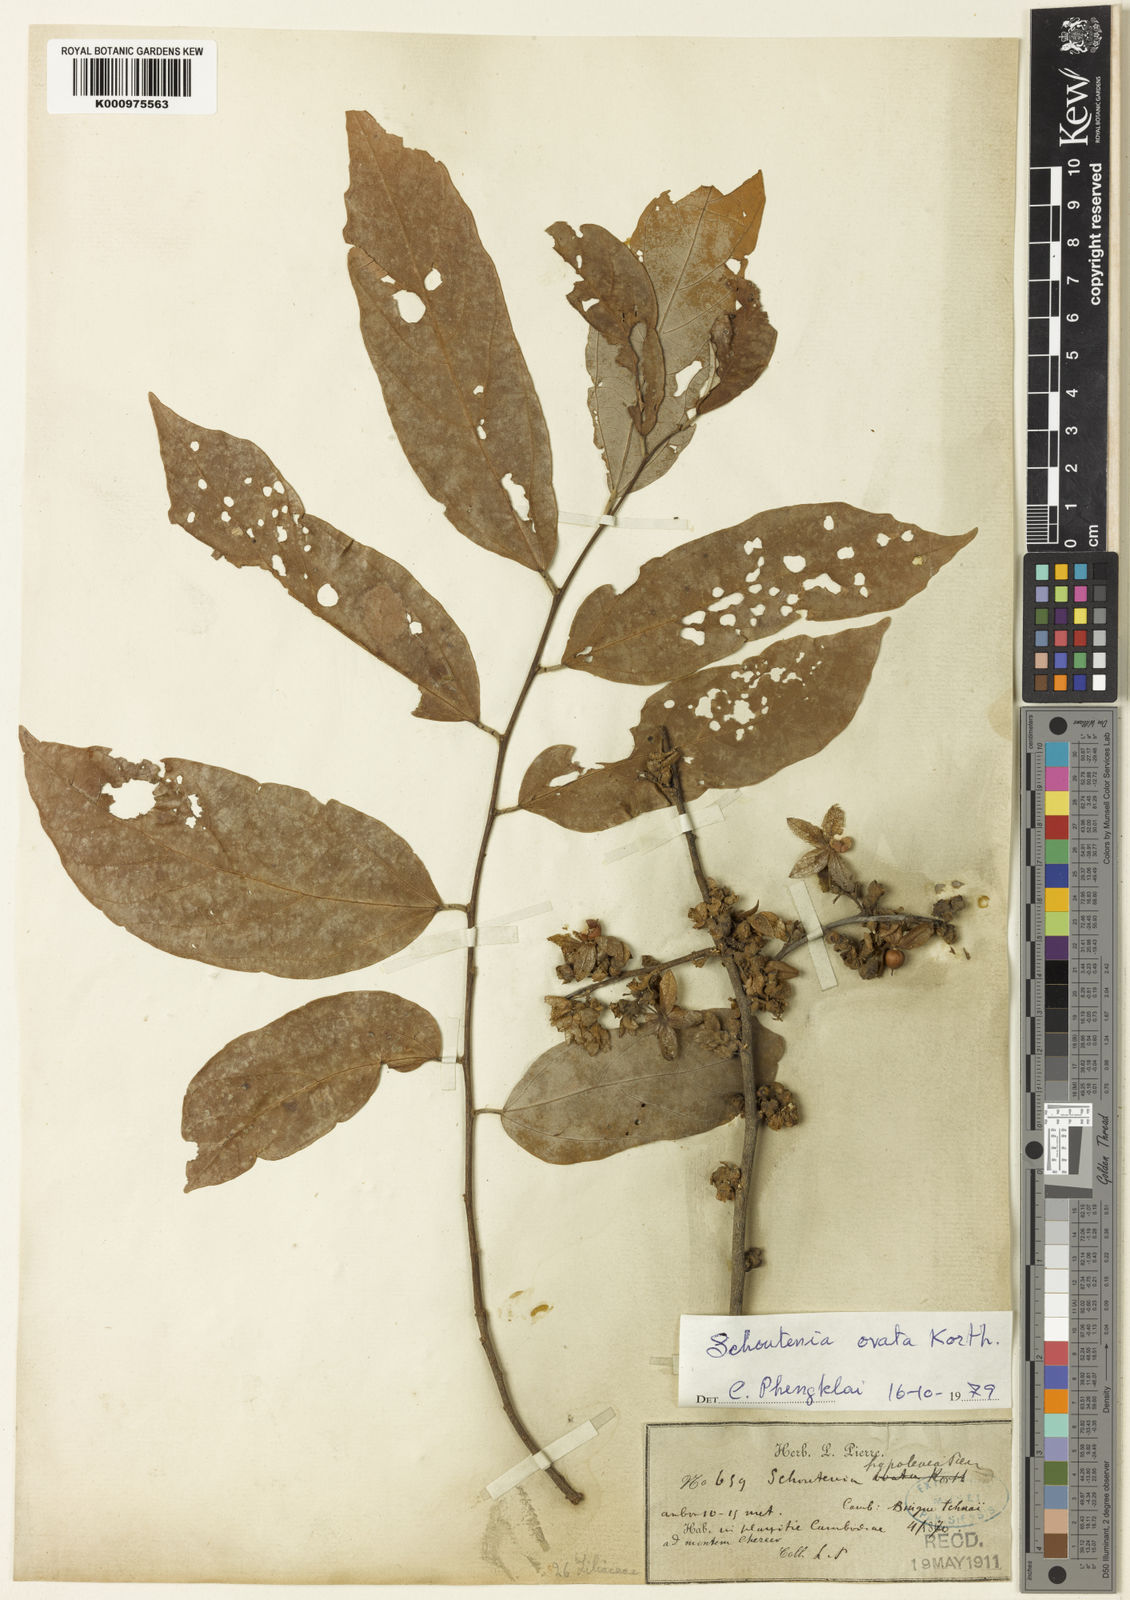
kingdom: Plantae
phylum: Tracheophyta
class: Magnoliopsida
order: Malvales
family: Malvaceae
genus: Schoutenia
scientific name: Schoutenia ovata
